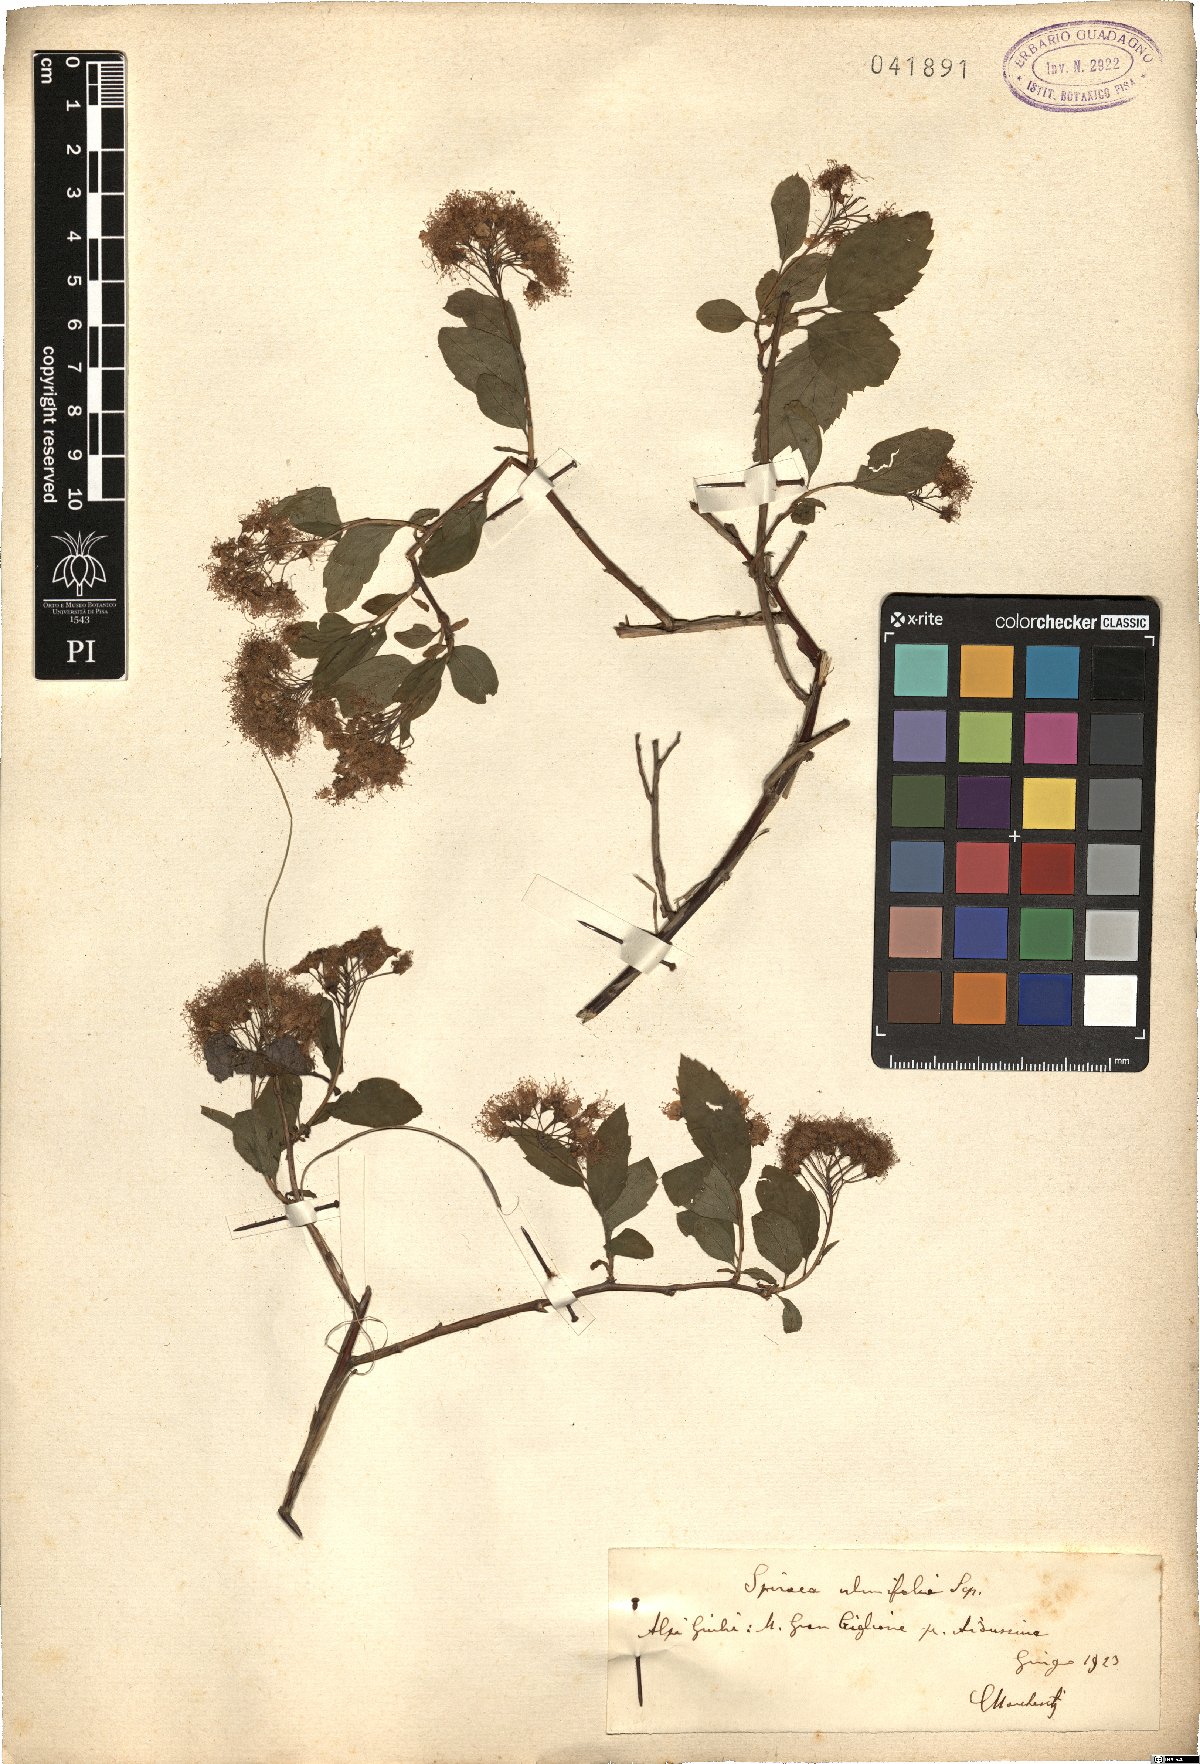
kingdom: Plantae
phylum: Tracheophyta
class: Magnoliopsida
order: Rosales
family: Rosaceae
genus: Spiraea
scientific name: Spiraea chamaedryfolia
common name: Elm-leaved spiraea
